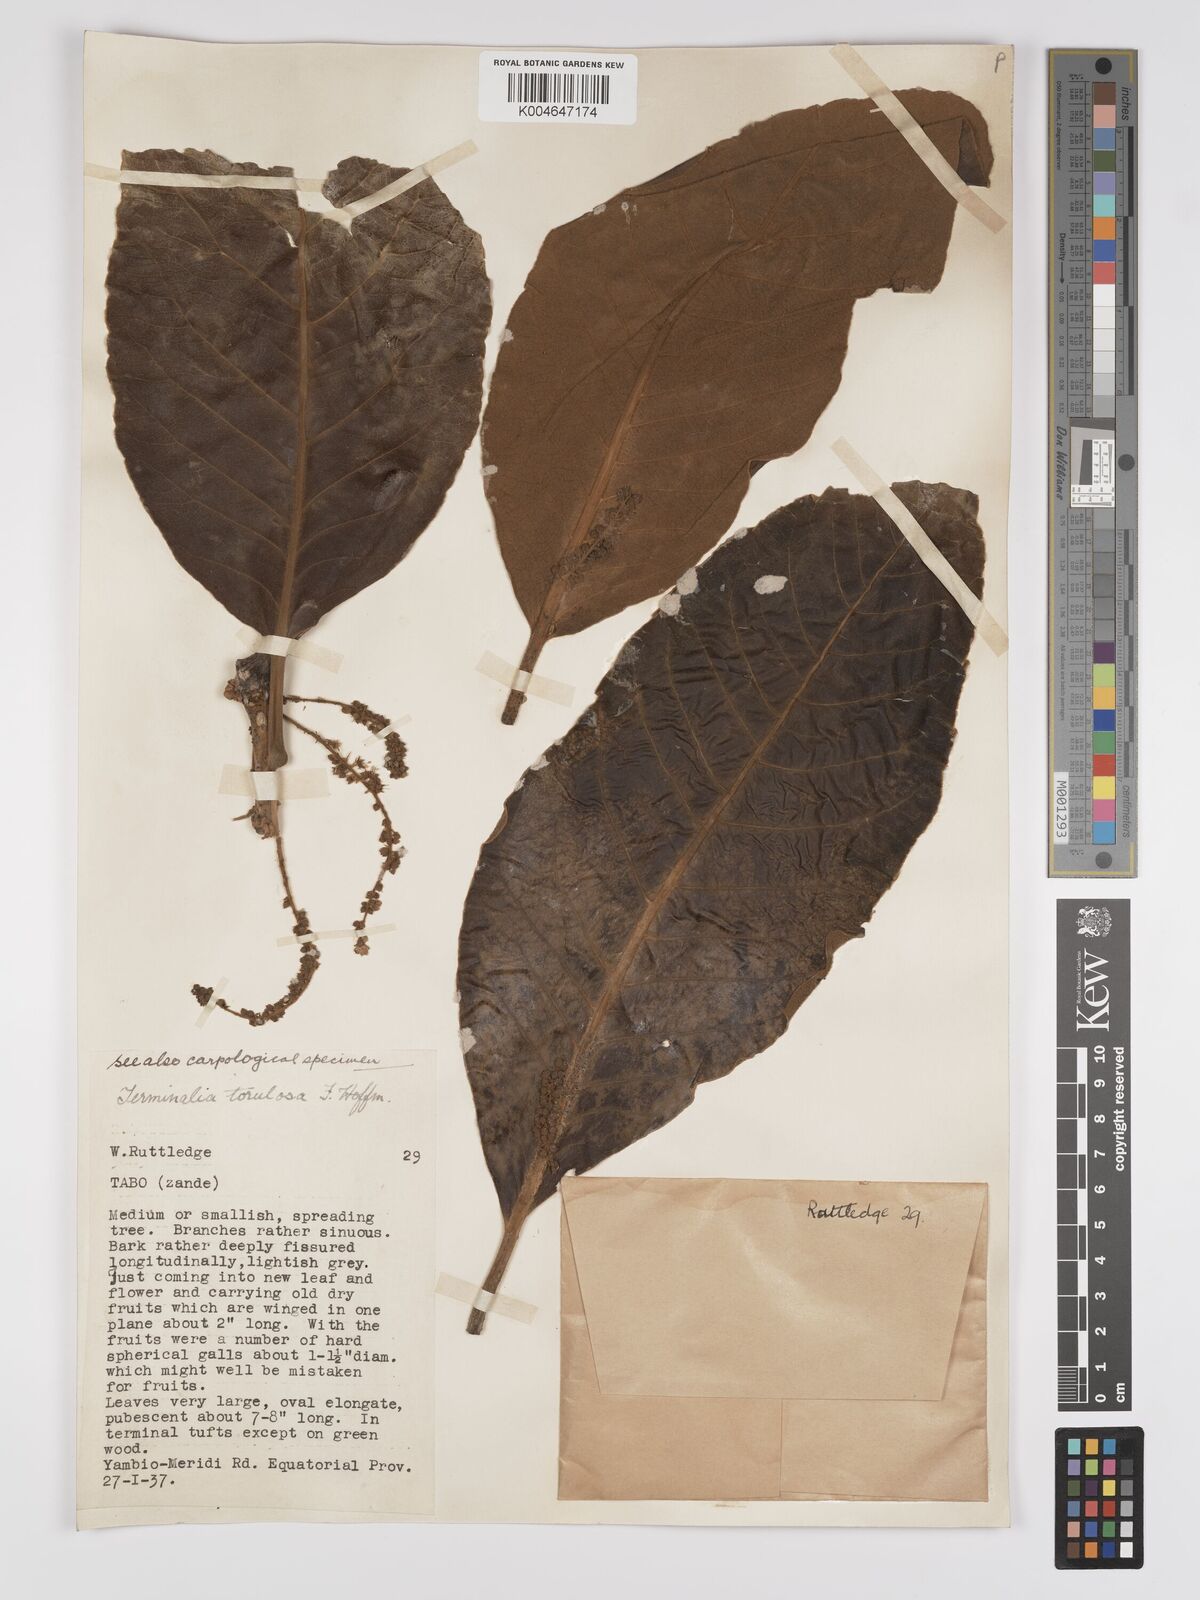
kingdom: Plantae
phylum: Tracheophyta
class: Magnoliopsida
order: Myrtales
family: Combretaceae
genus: Terminalia
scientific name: Terminalia mollis
